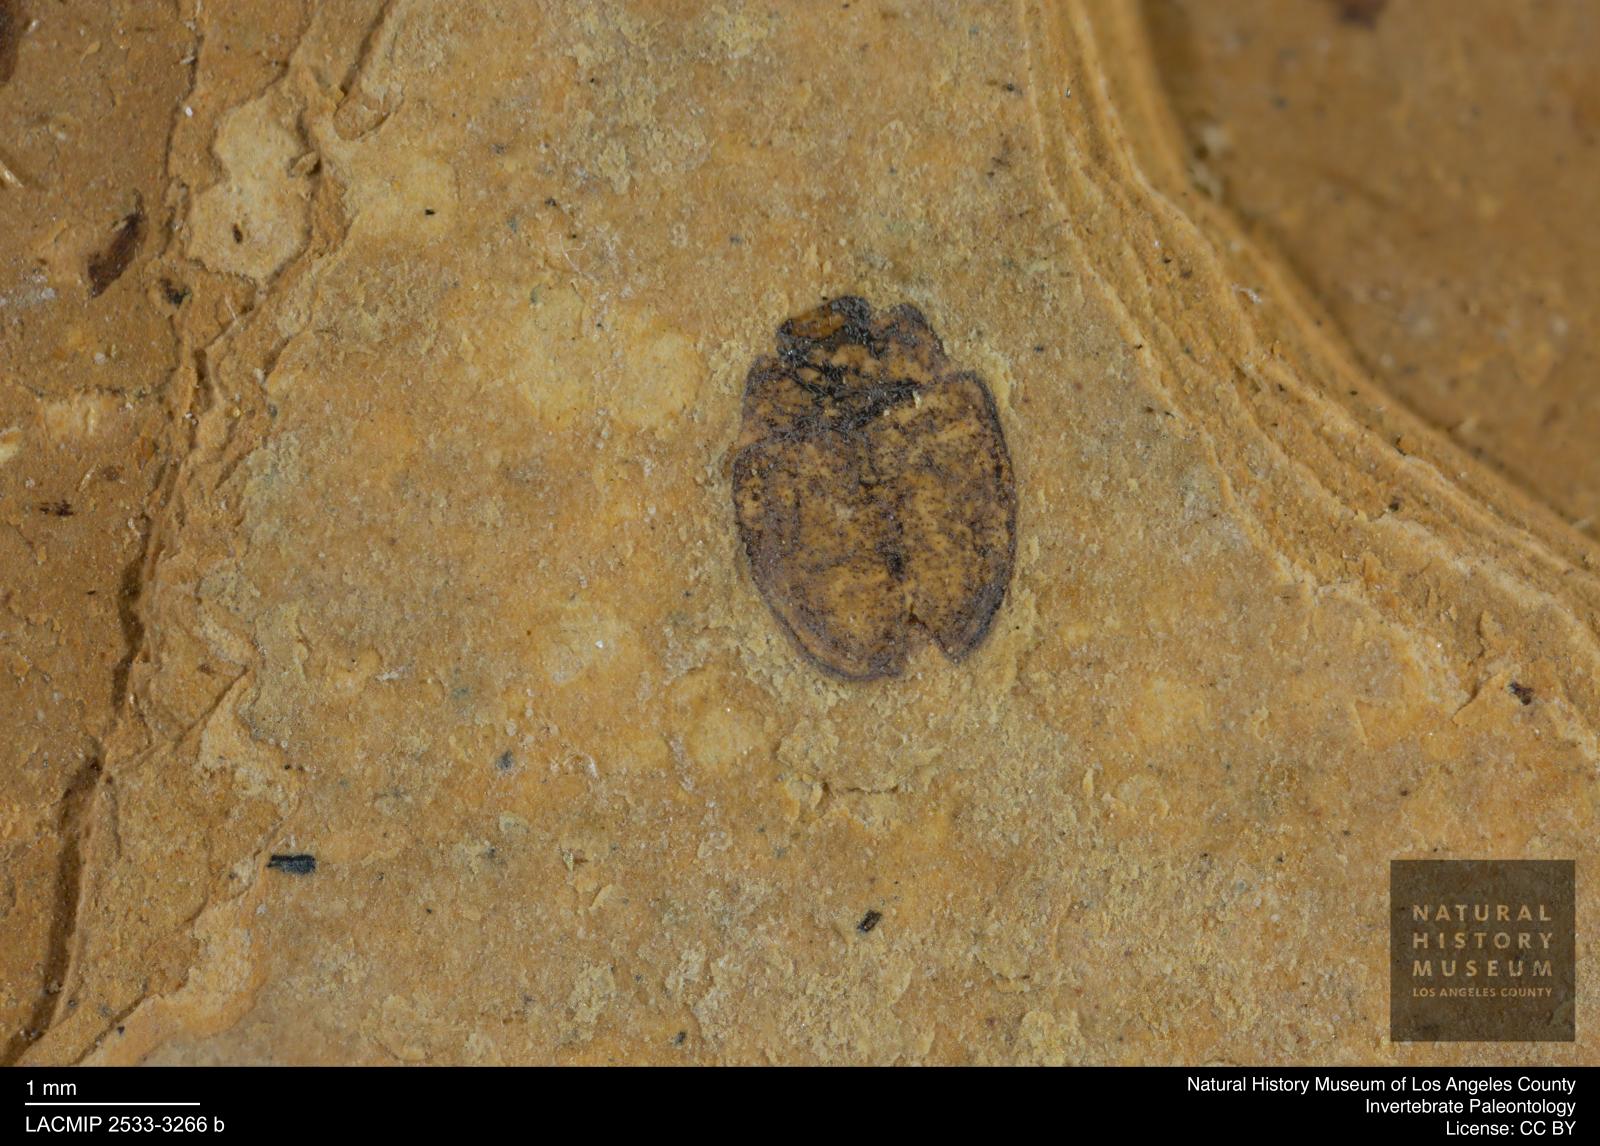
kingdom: Animalia
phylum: Arthropoda
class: Insecta
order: Coleoptera
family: Hydrophilidae
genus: Paracymus
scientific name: Paracymus excitatus
